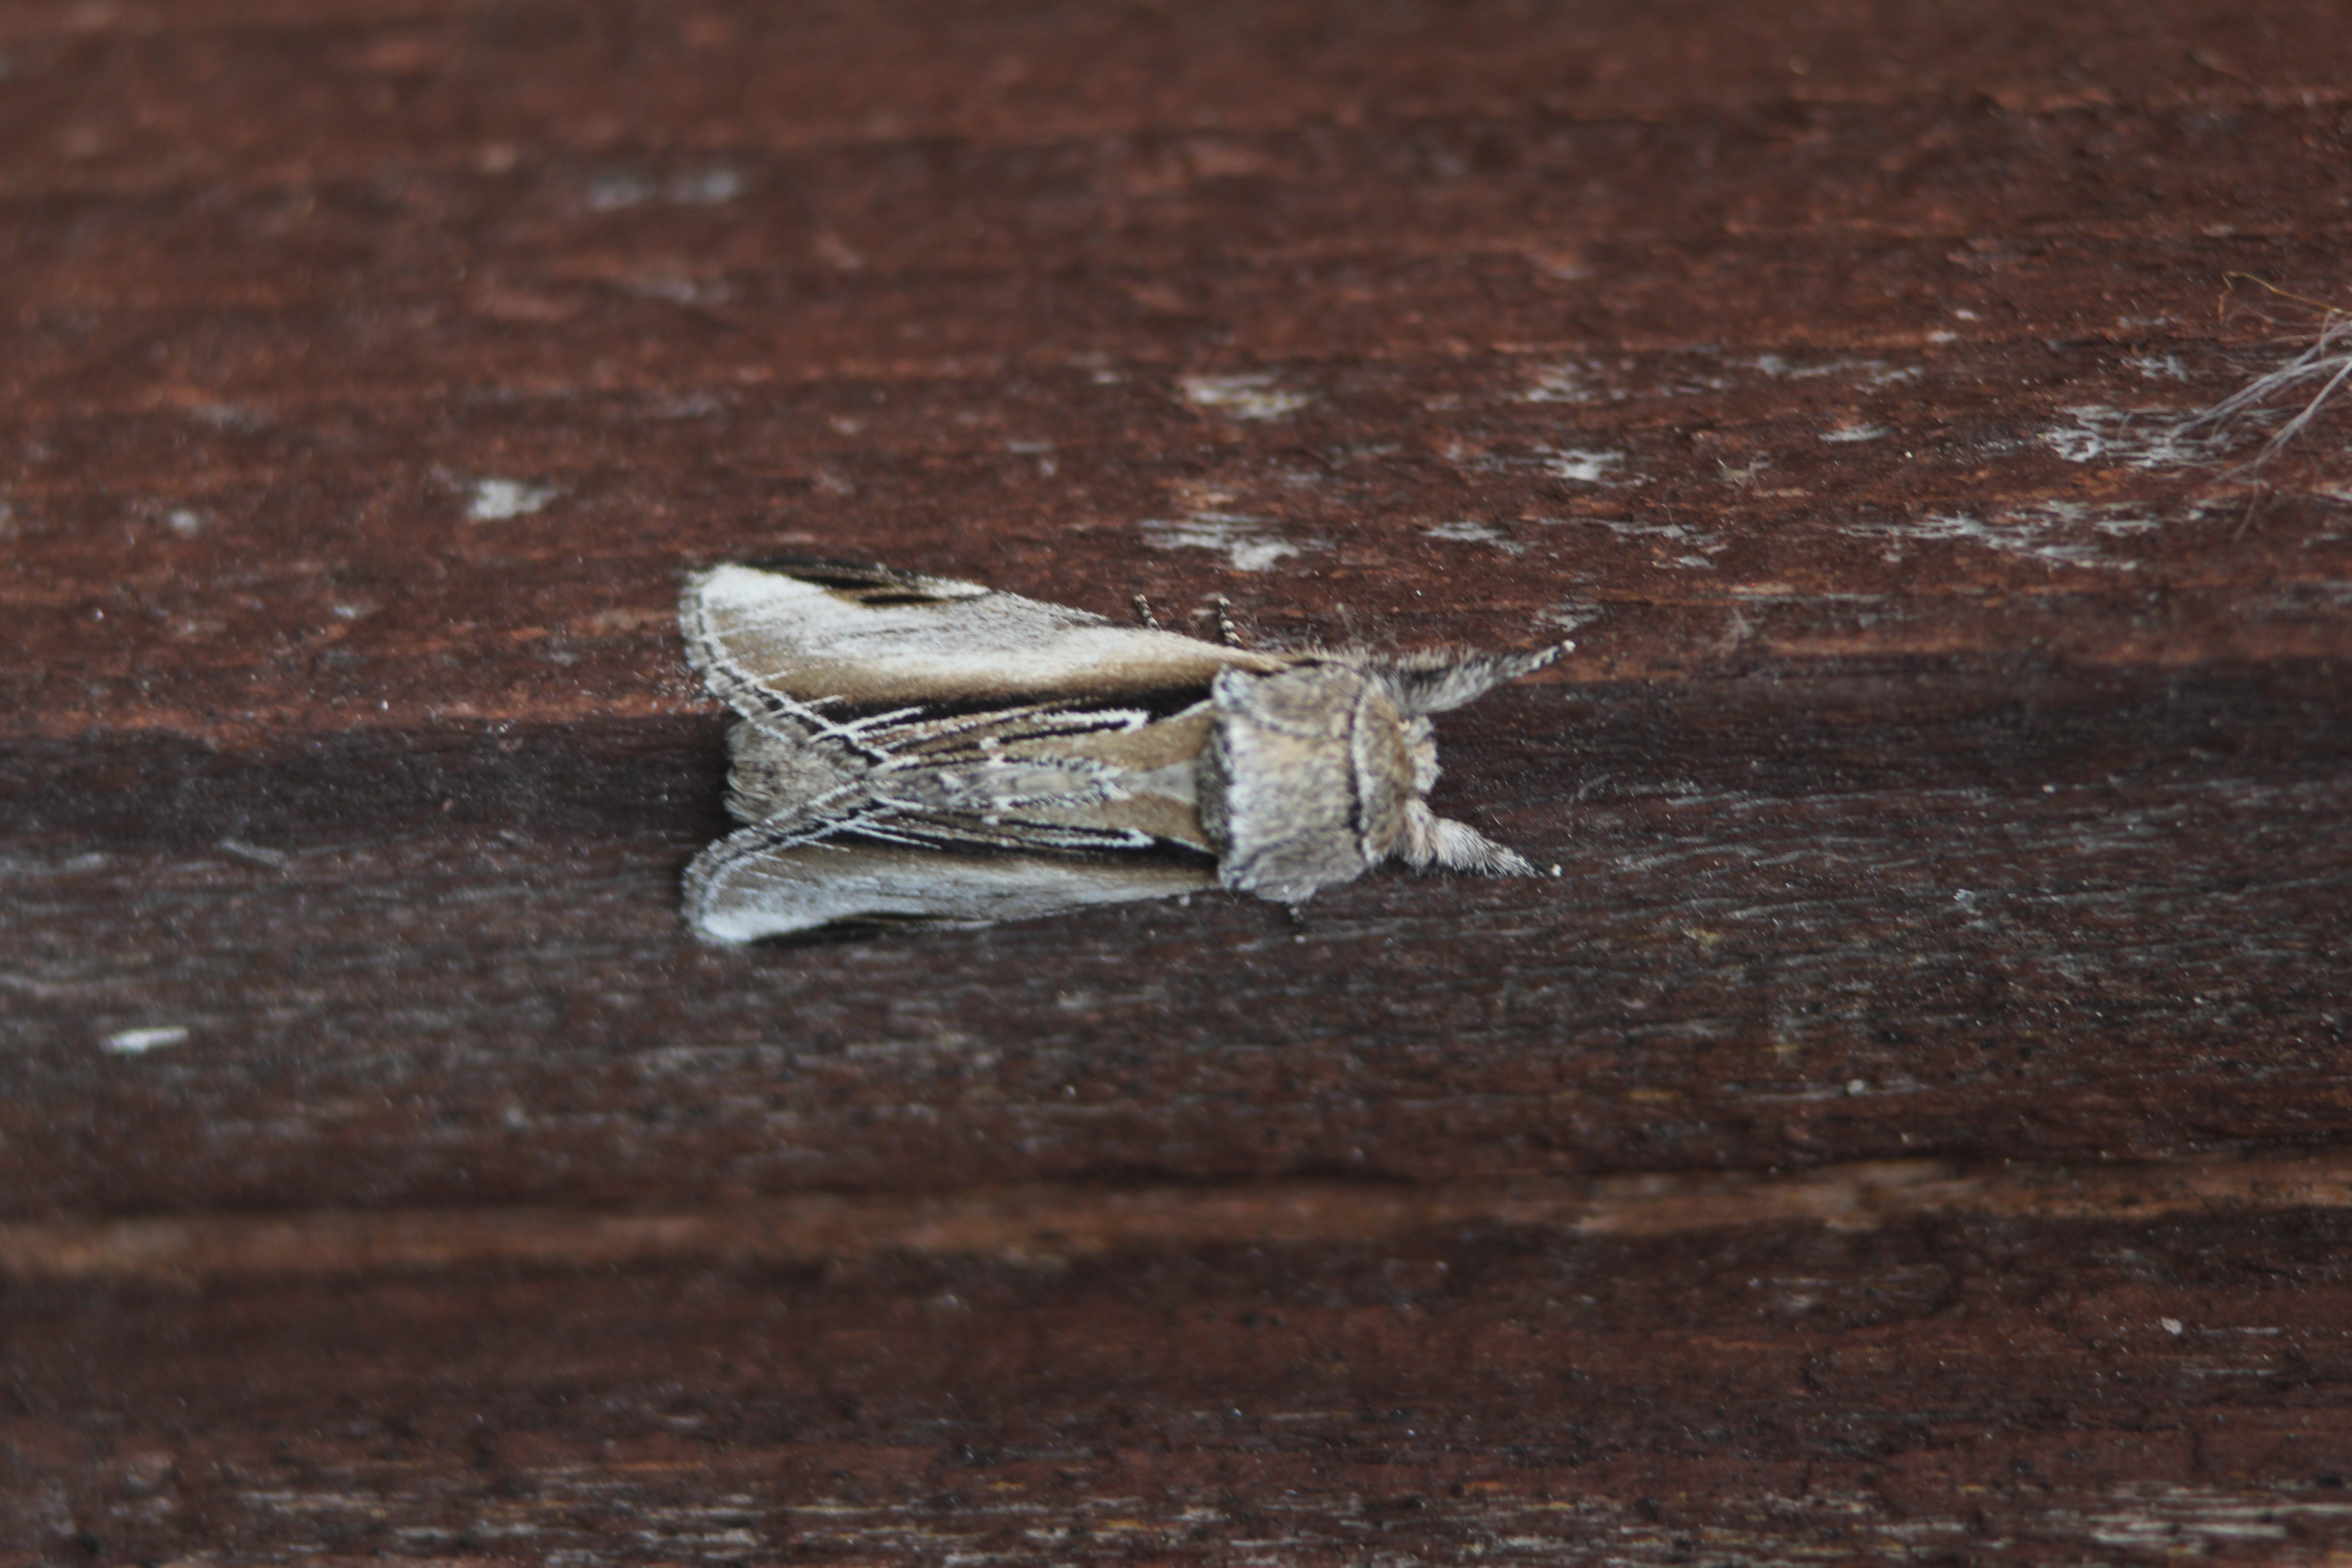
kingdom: Animalia
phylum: Arthropoda
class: Insecta
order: Lepidoptera
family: Notodontidae
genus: Pheosia
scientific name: Pheosia tremula
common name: Swallow prominent
